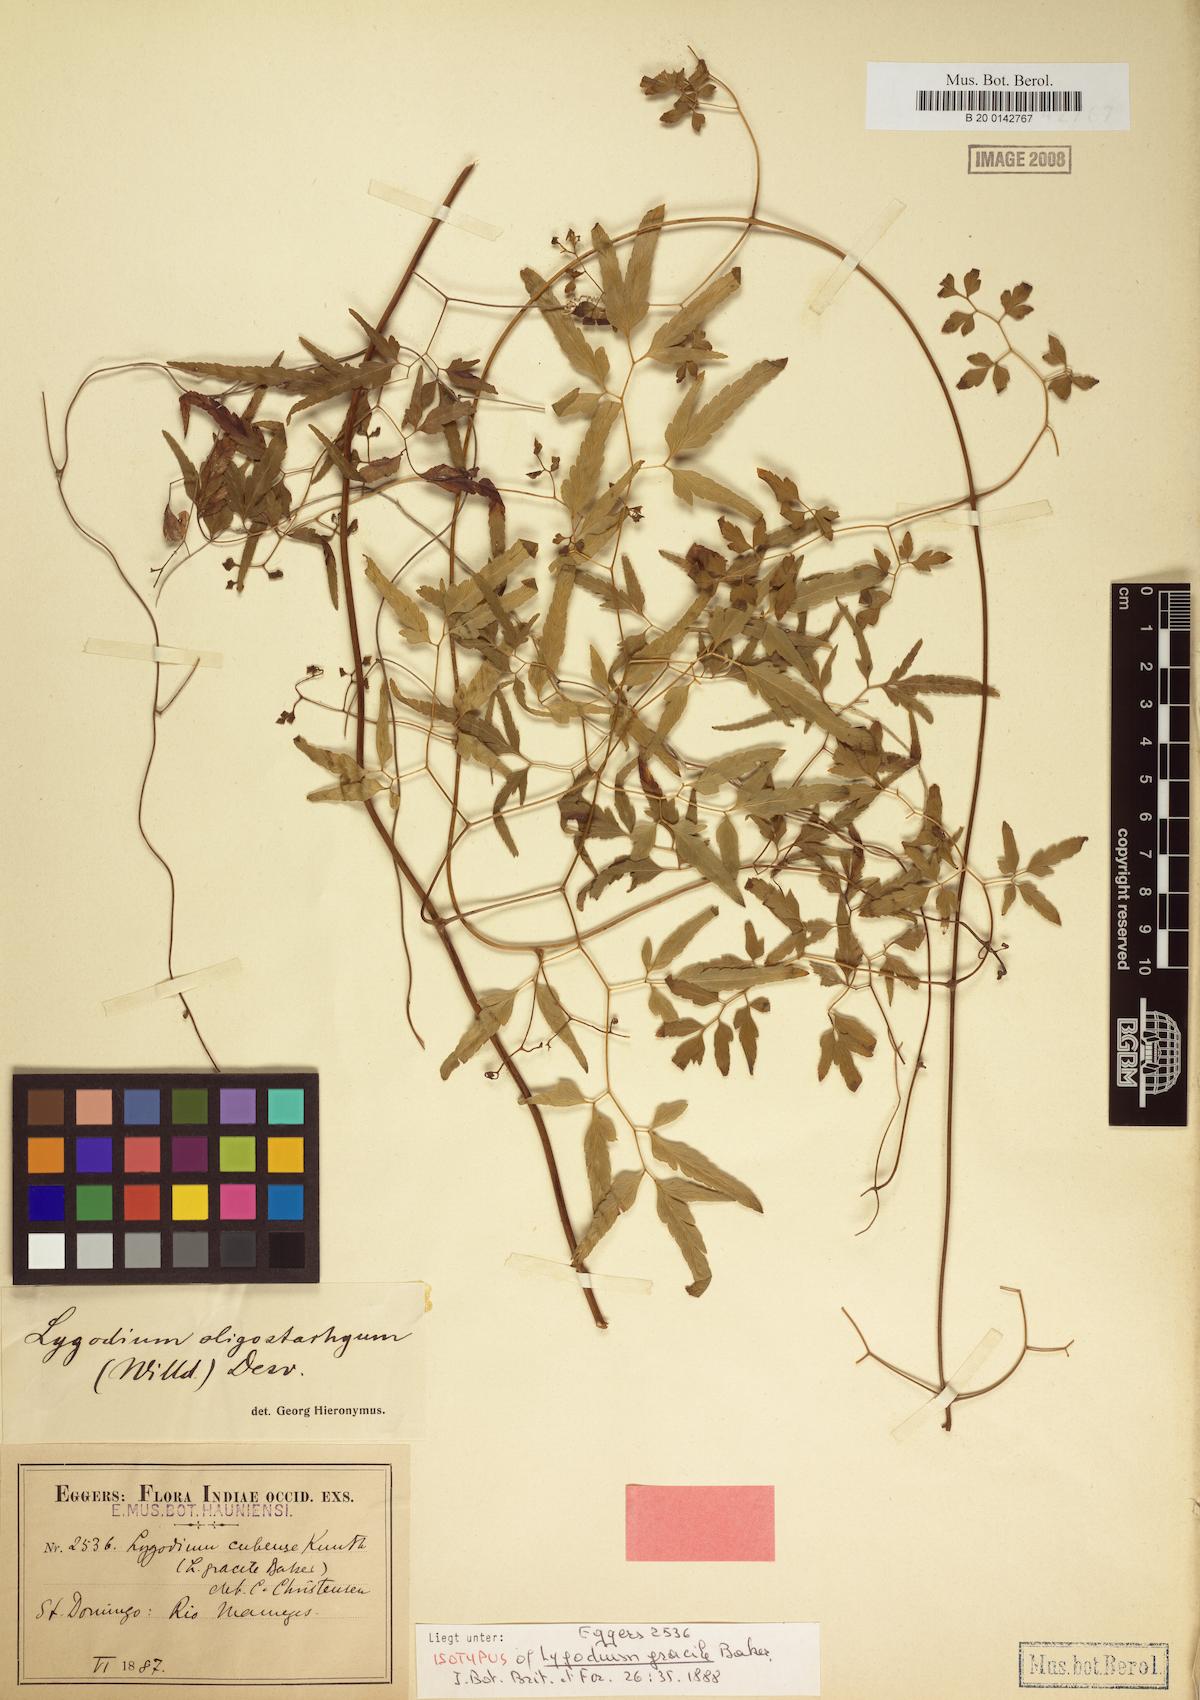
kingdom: Plantae
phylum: Tracheophyta
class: Polypodiopsida
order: Schizaeales
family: Lygodiaceae
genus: Lygodium
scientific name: Lygodium oligostachyum
